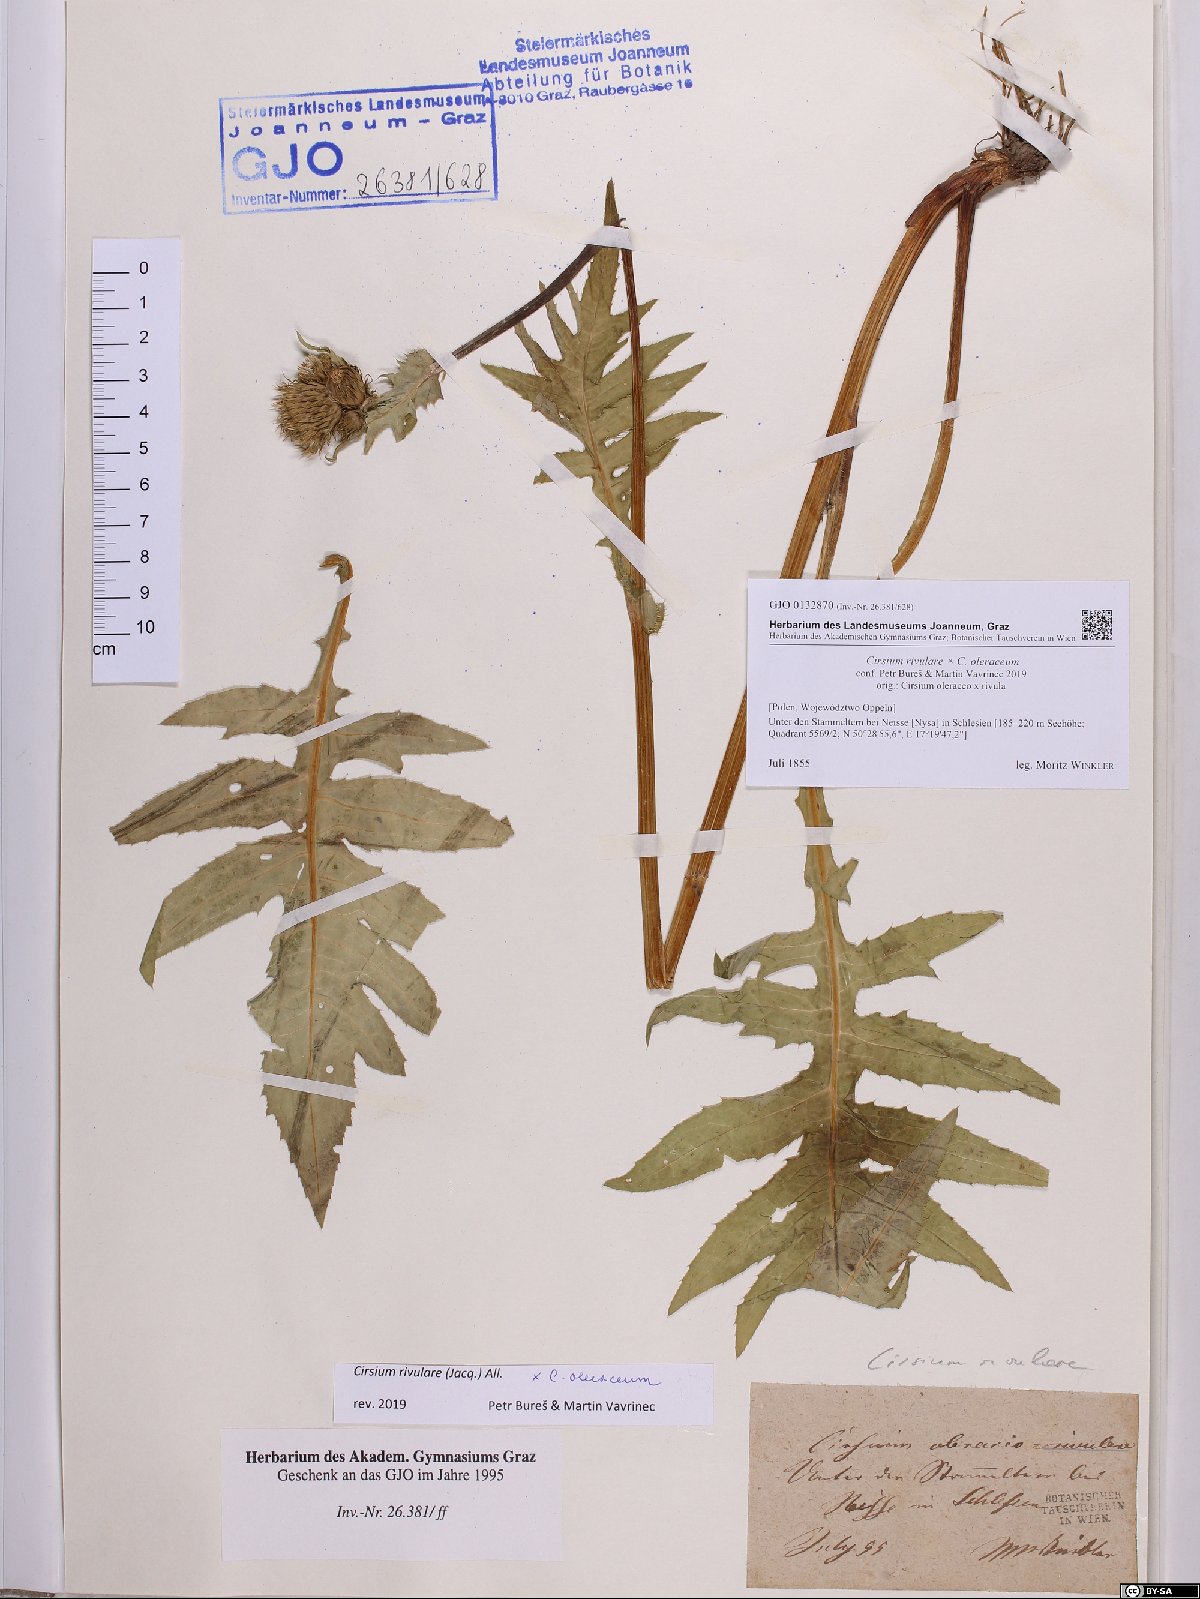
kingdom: Plantae
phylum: Tracheophyta
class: Magnoliopsida
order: Asterales
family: Asteraceae
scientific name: Asteraceae
